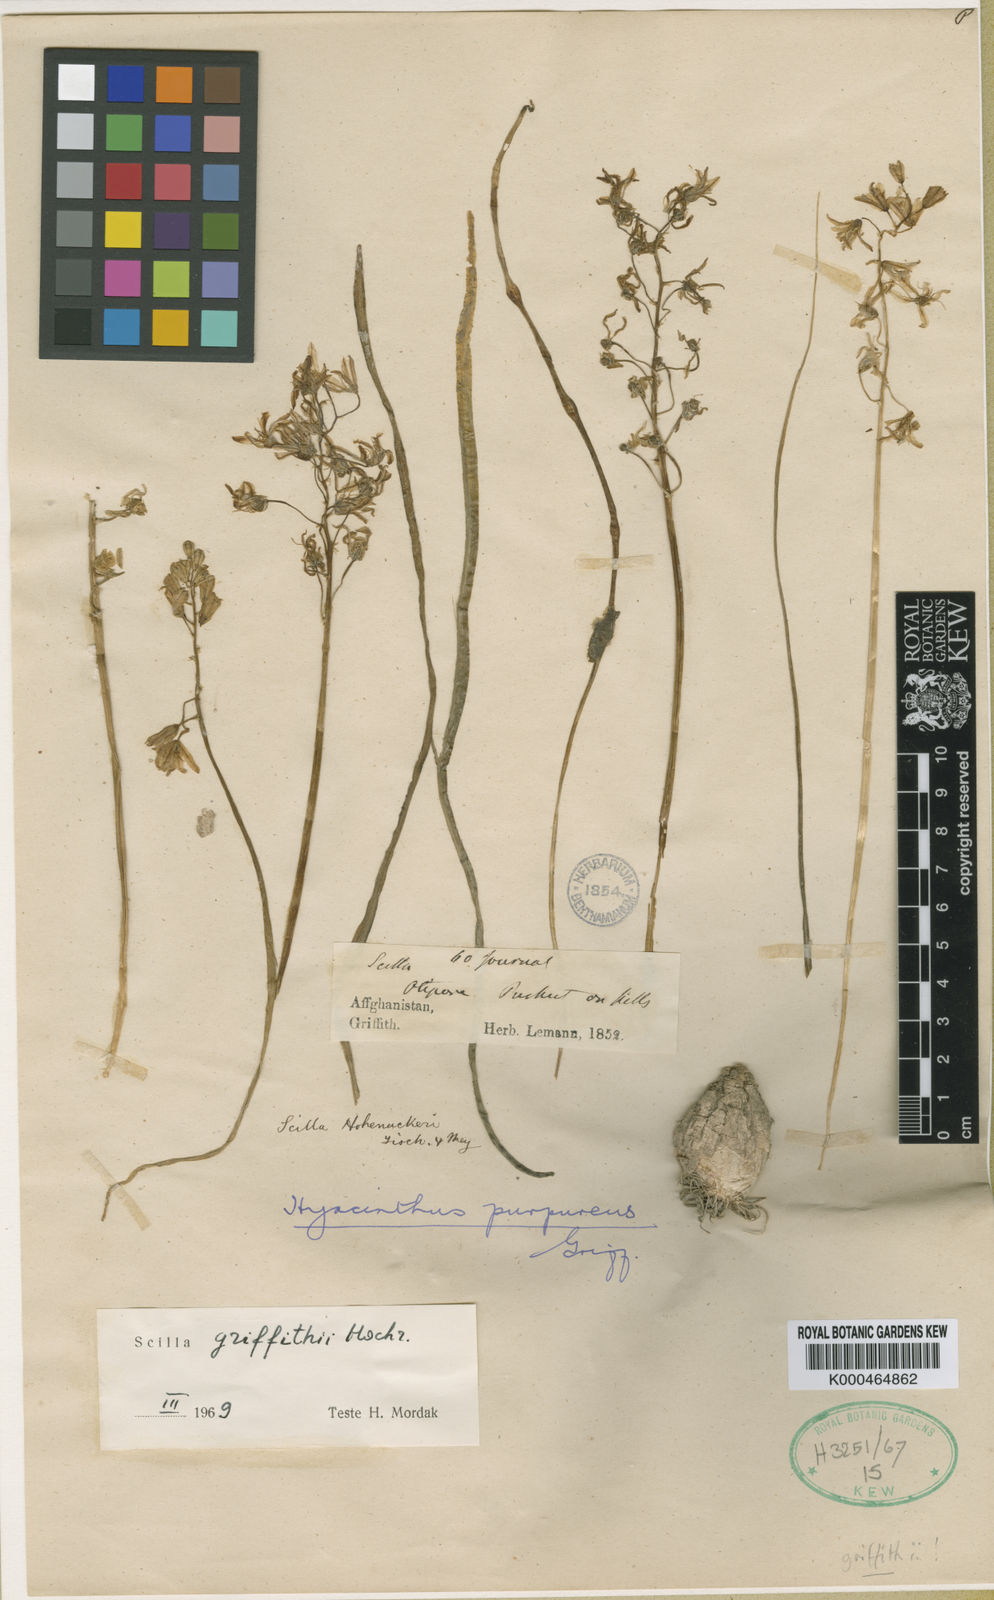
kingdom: Plantae
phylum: Tracheophyta
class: Liliopsida
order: Asparagales
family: Asparagaceae
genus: Fessia
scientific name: Fessia purpurea
